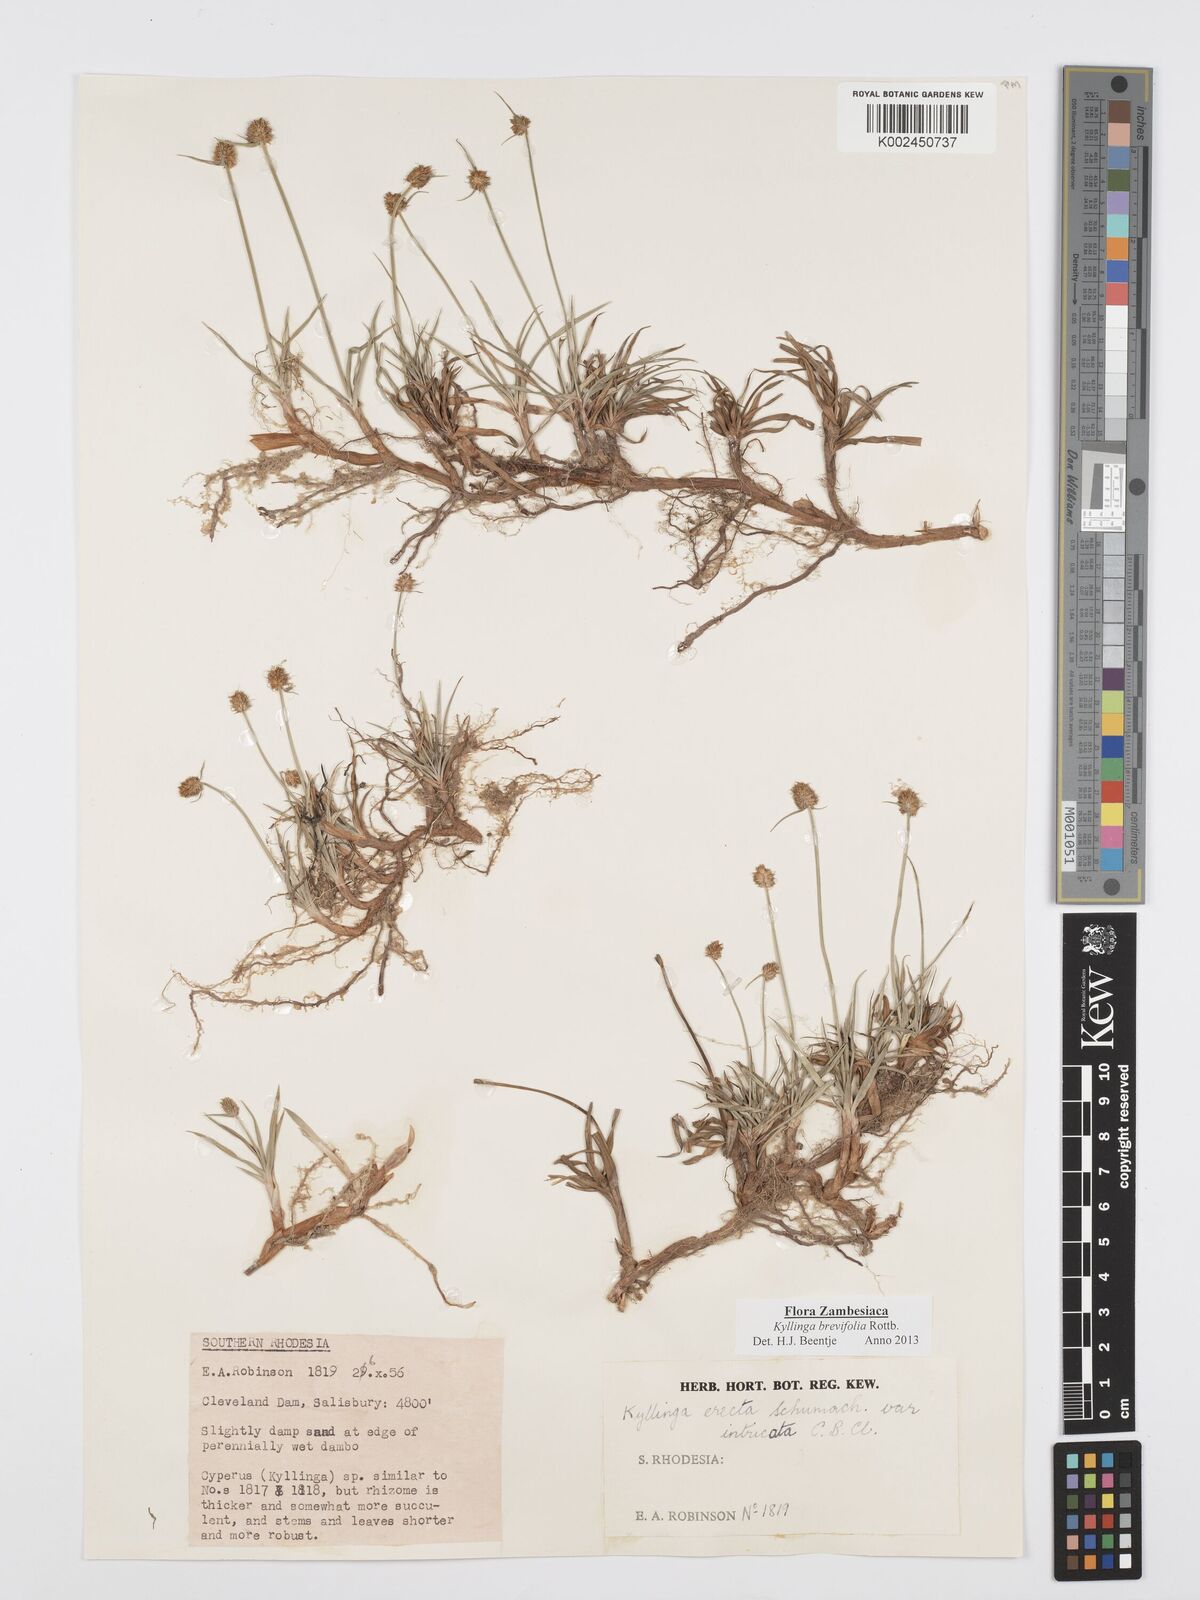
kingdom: Plantae
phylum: Tracheophyta
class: Liliopsida
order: Poales
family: Cyperaceae
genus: Cyperus
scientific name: Cyperus brevifolius
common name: Globe kyllinga
